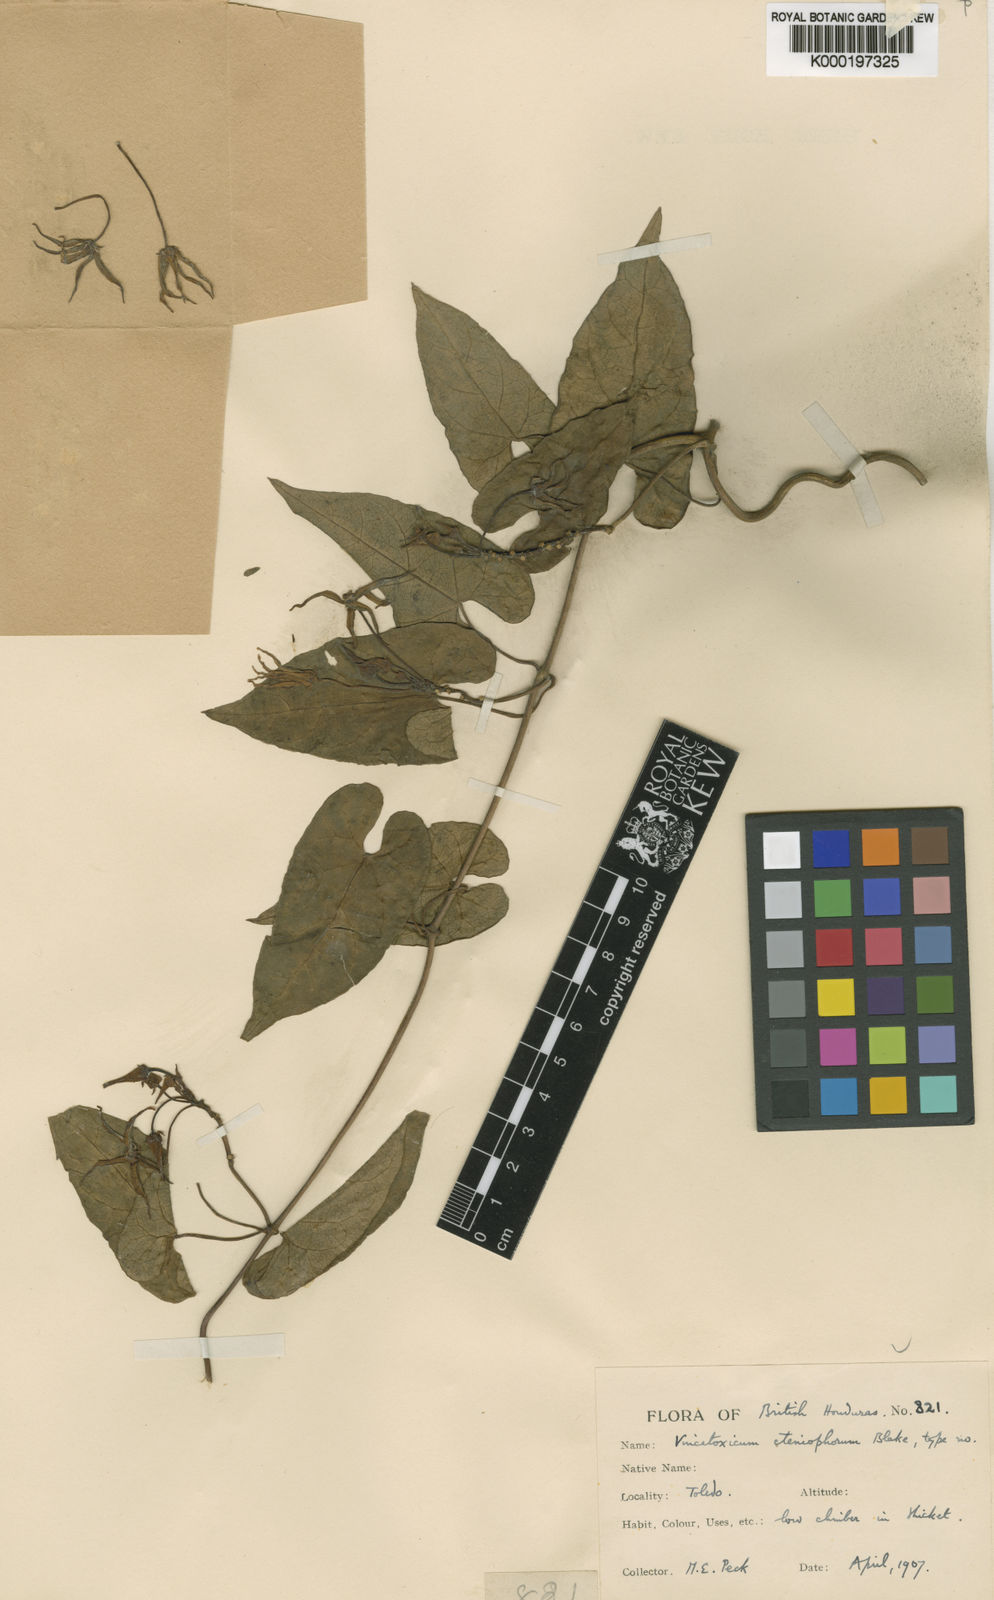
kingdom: Plantae
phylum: Tracheophyta
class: Magnoliopsida
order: Gentianales
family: Apocynaceae
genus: Gonolobus
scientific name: Gonolobus cteniophorus
